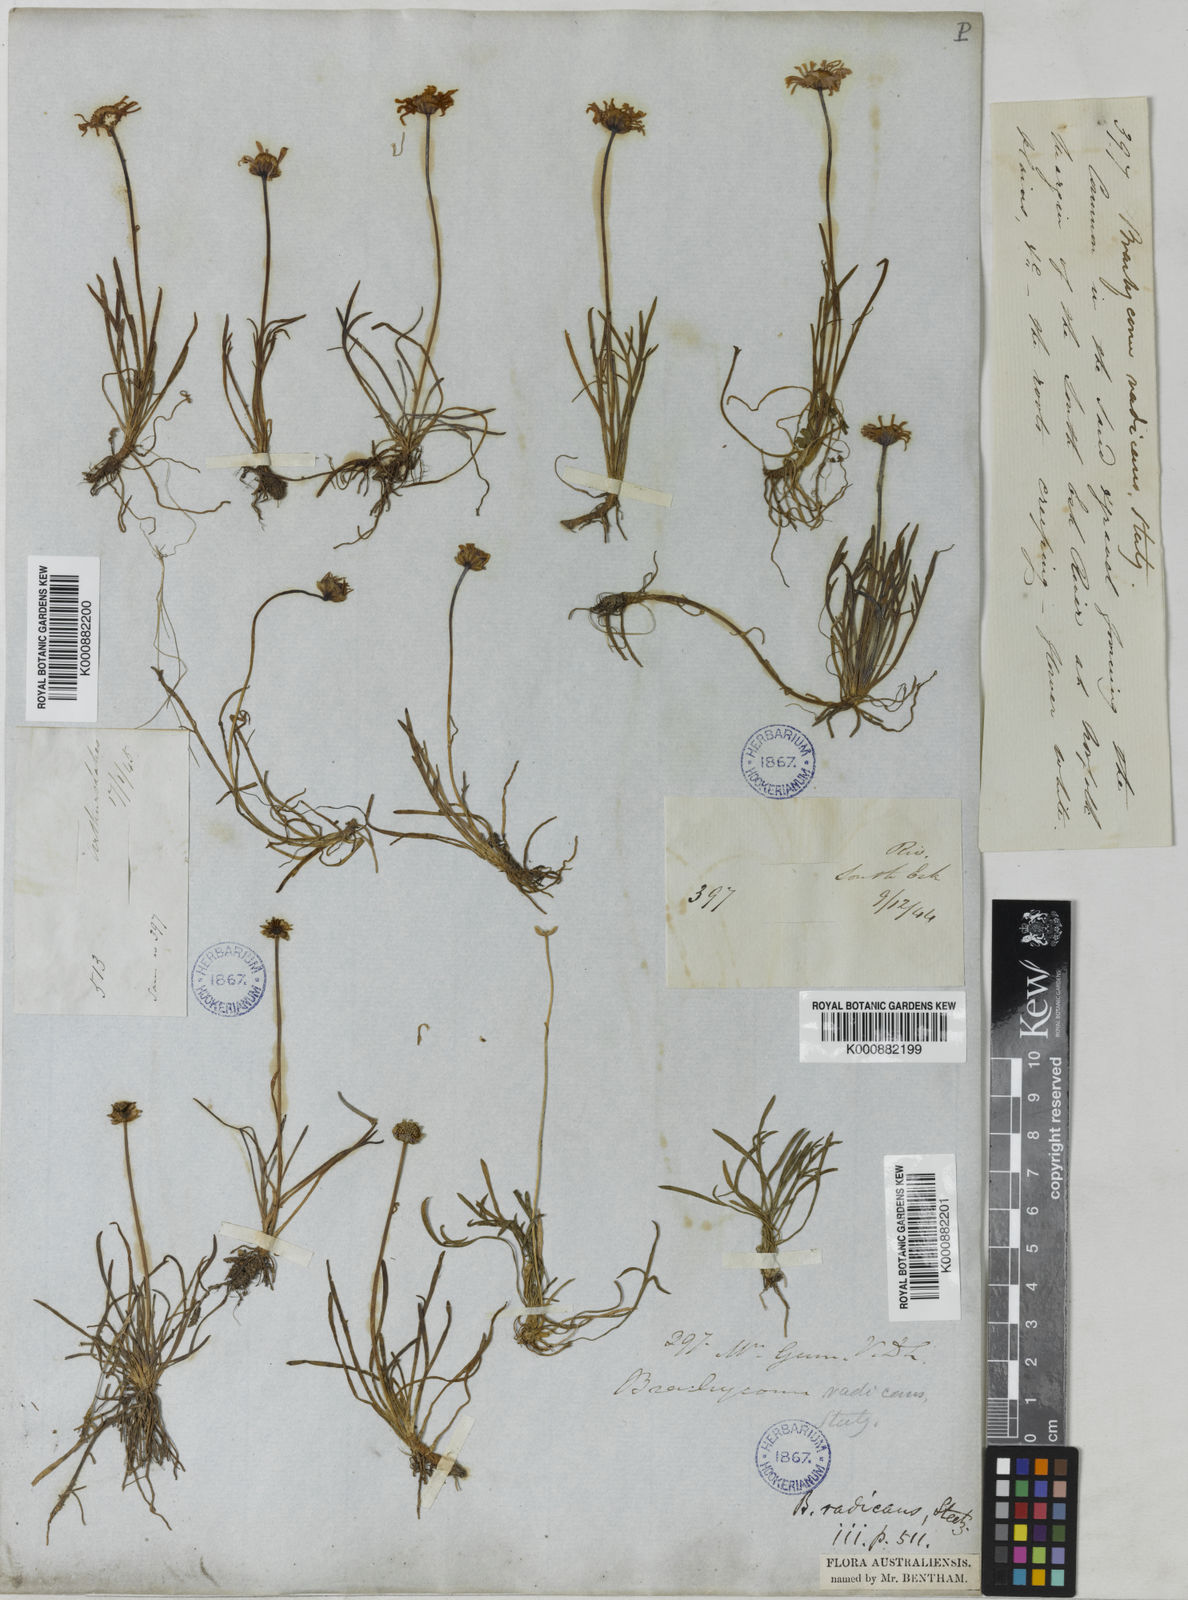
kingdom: Plantae
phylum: Tracheophyta
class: Magnoliopsida
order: Asterales
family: Asteraceae
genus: Brachyscome
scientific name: Brachyscome radicans
